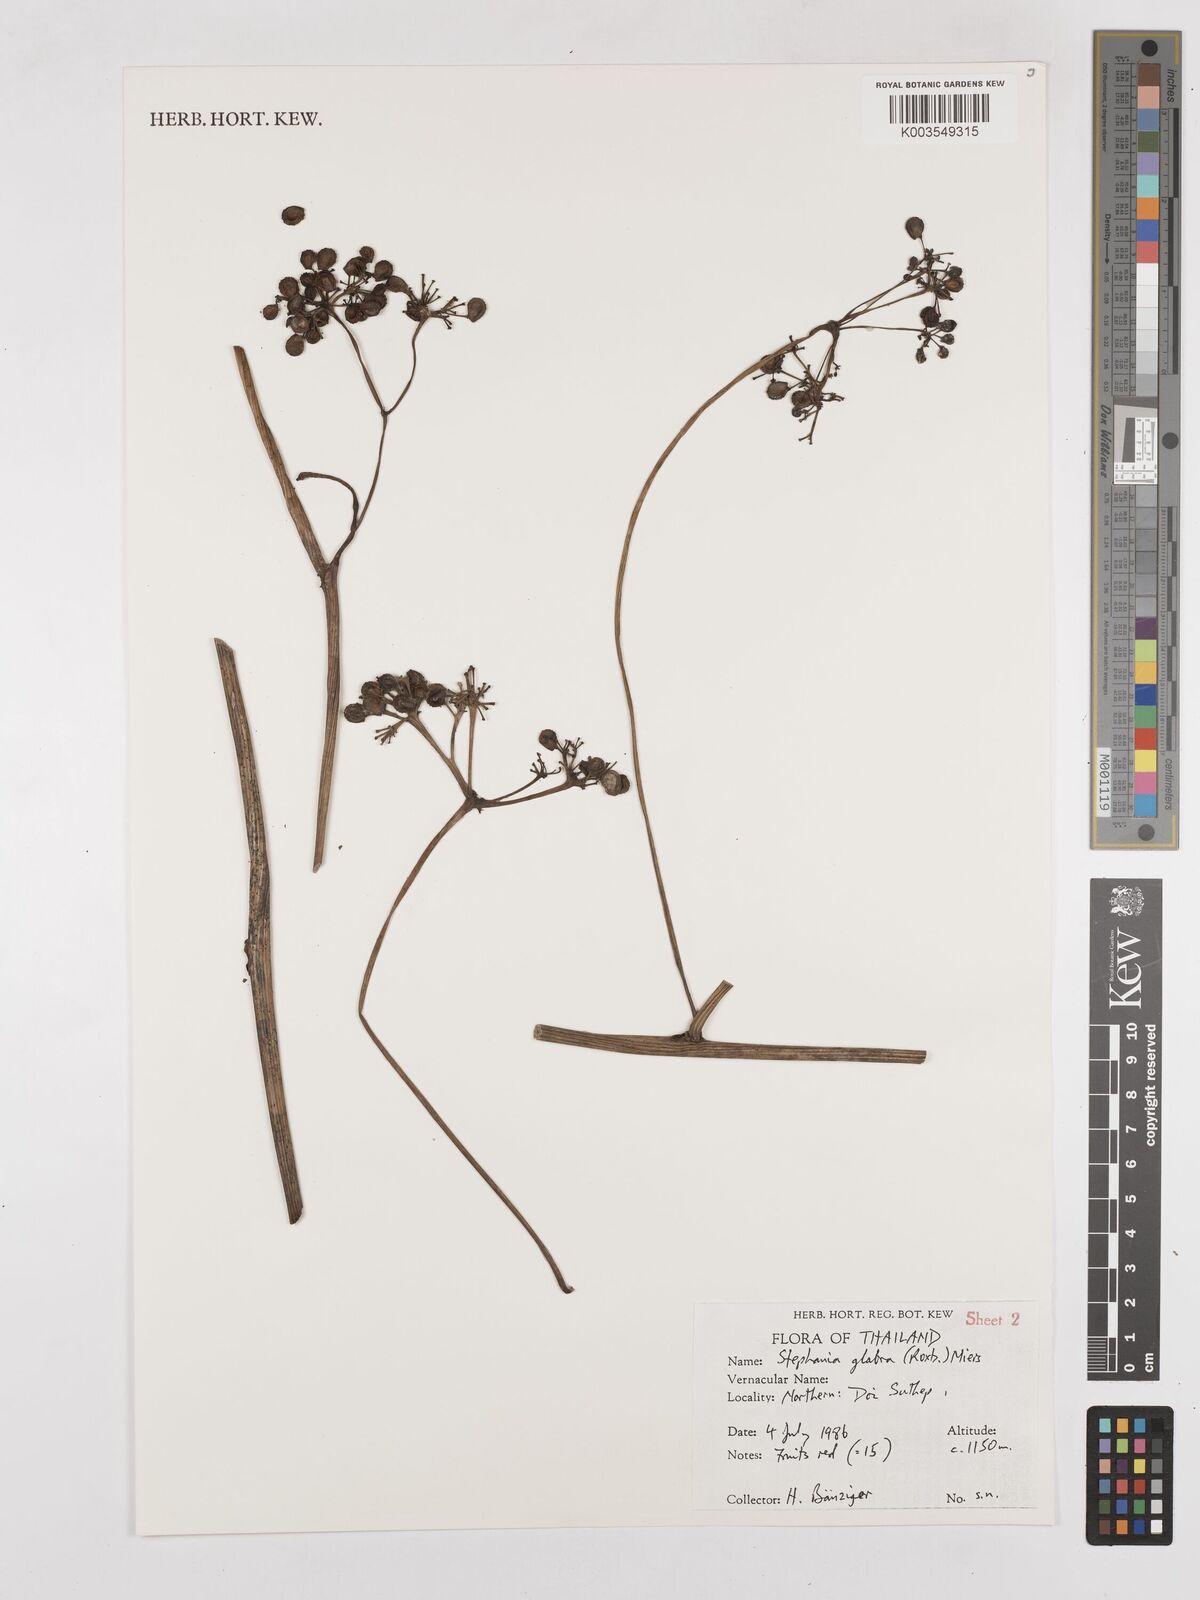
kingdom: Plantae
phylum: Tracheophyta
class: Magnoliopsida
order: Ranunculales
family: Menispermaceae
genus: Stephania
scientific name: Stephania rotunda
